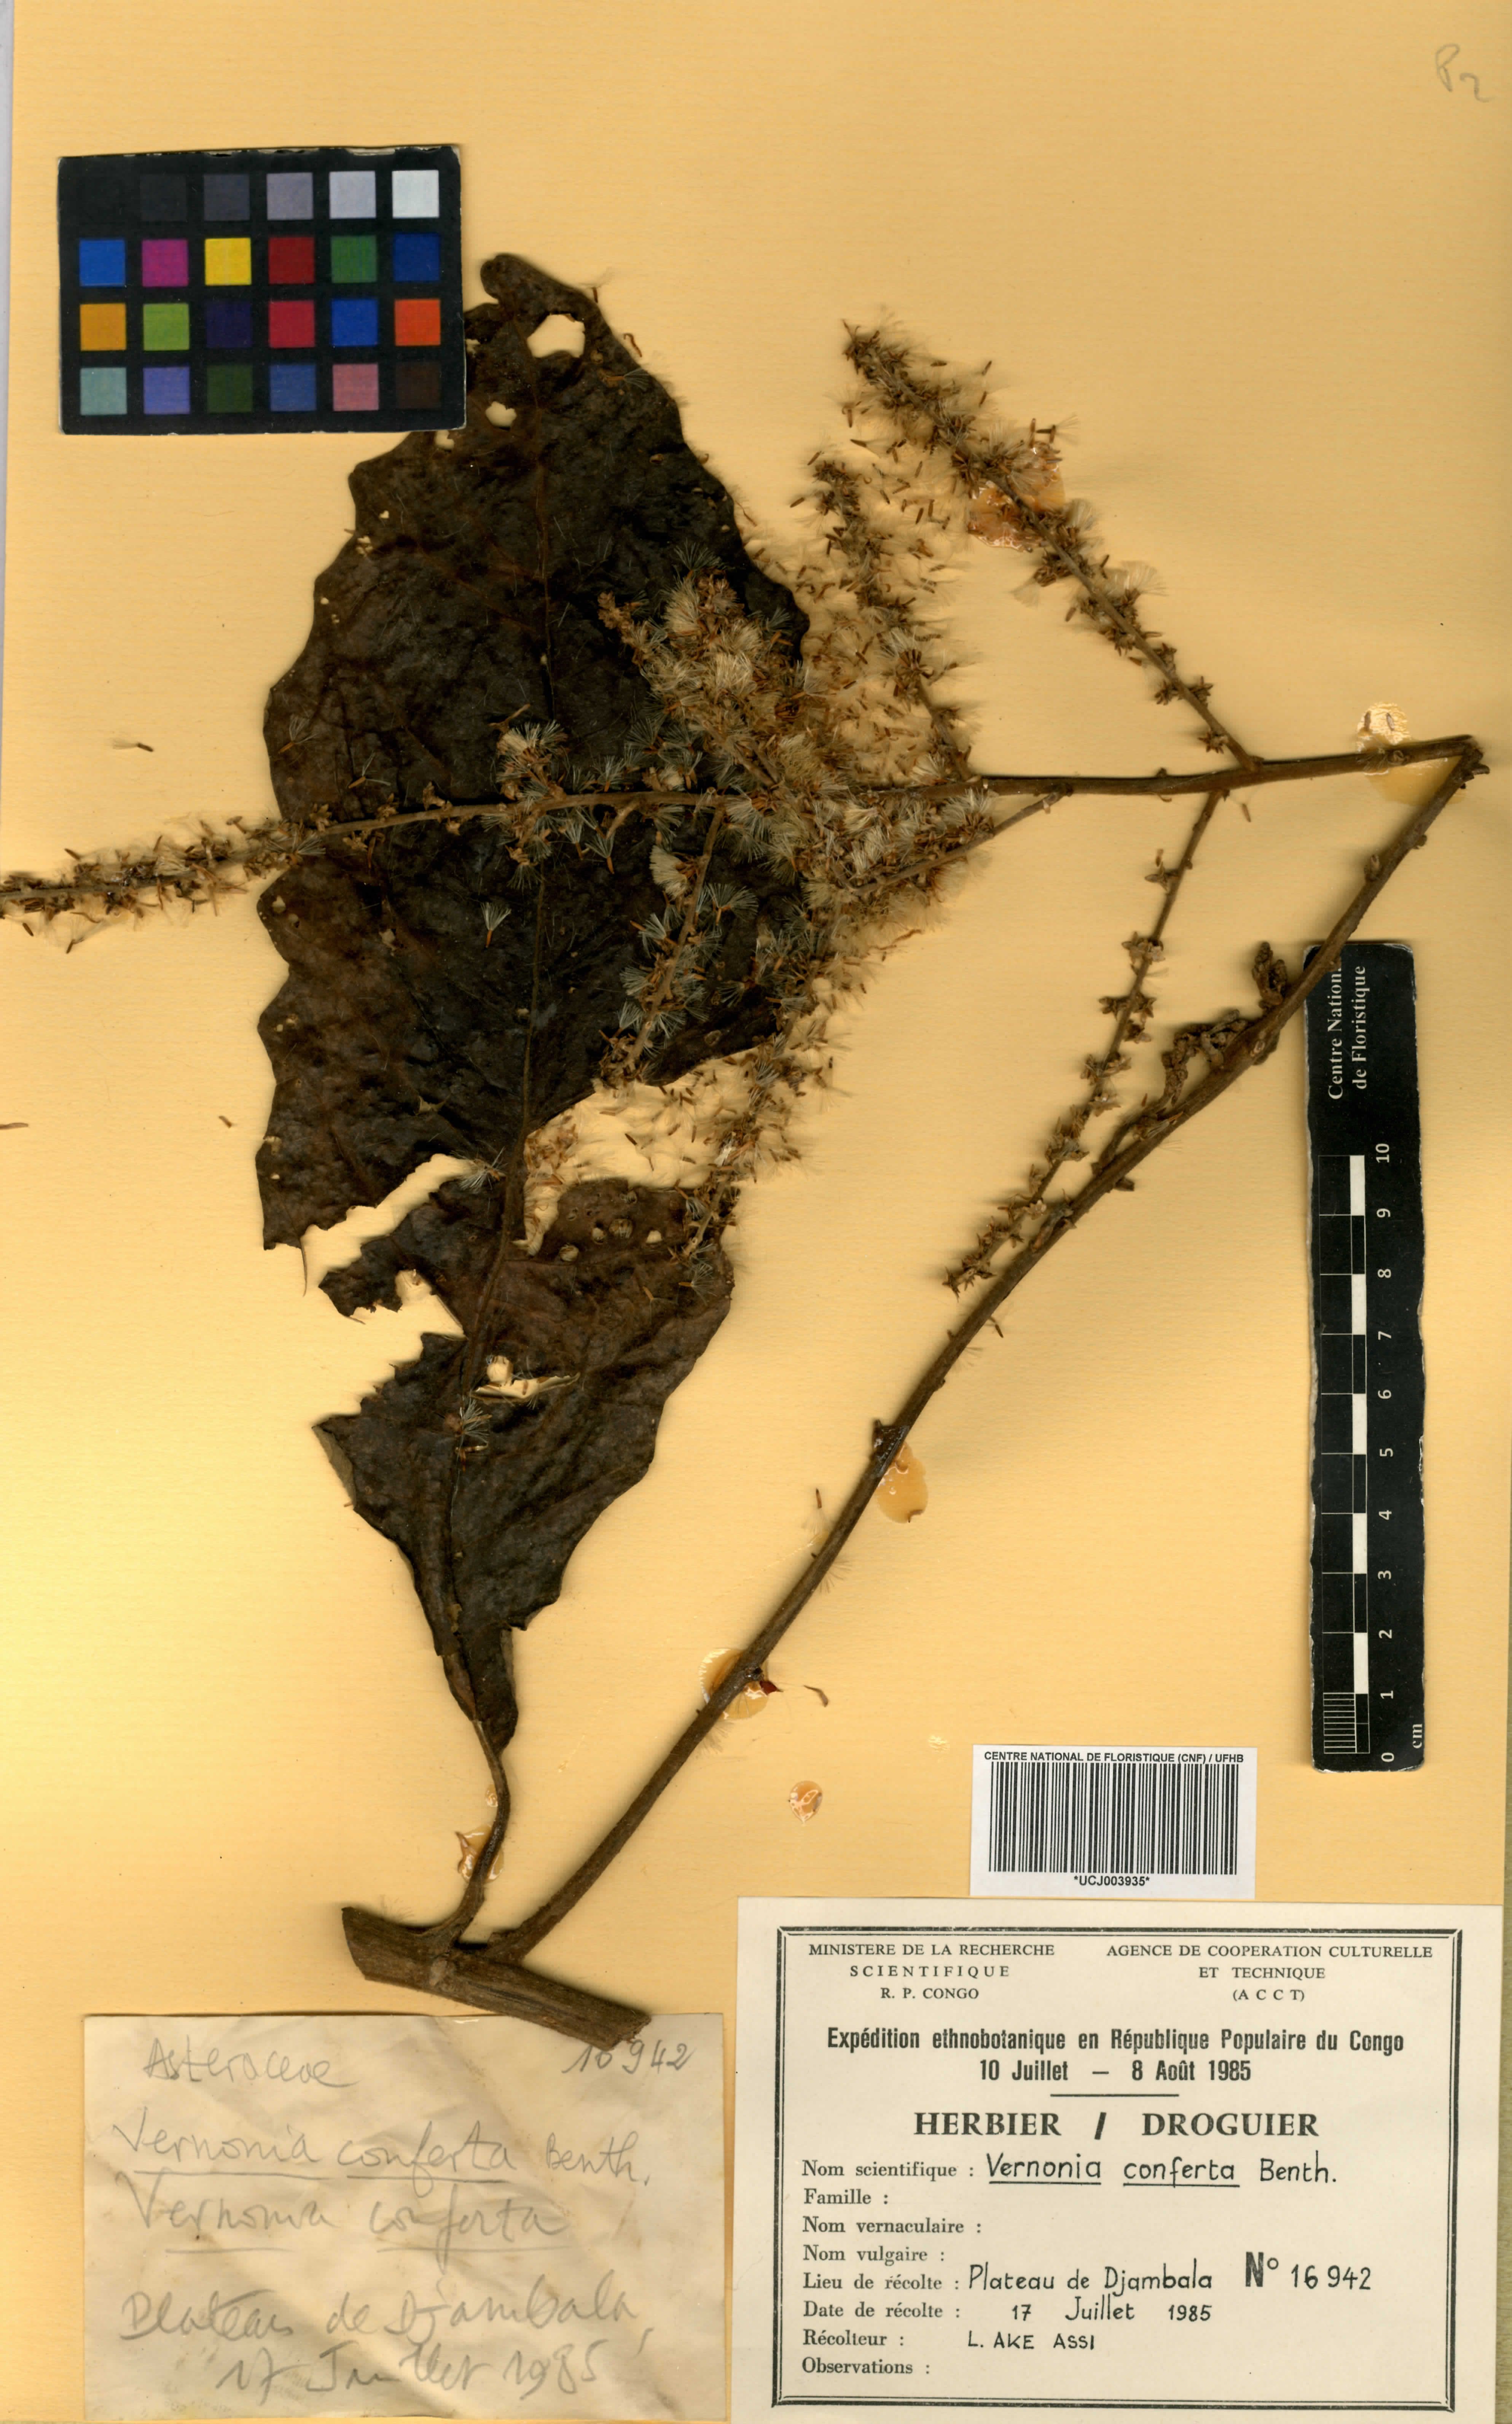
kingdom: Plantae
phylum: Tracheophyta
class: Magnoliopsida
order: Asterales
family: Asteraceae
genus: Monosis
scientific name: Monosis conferta
